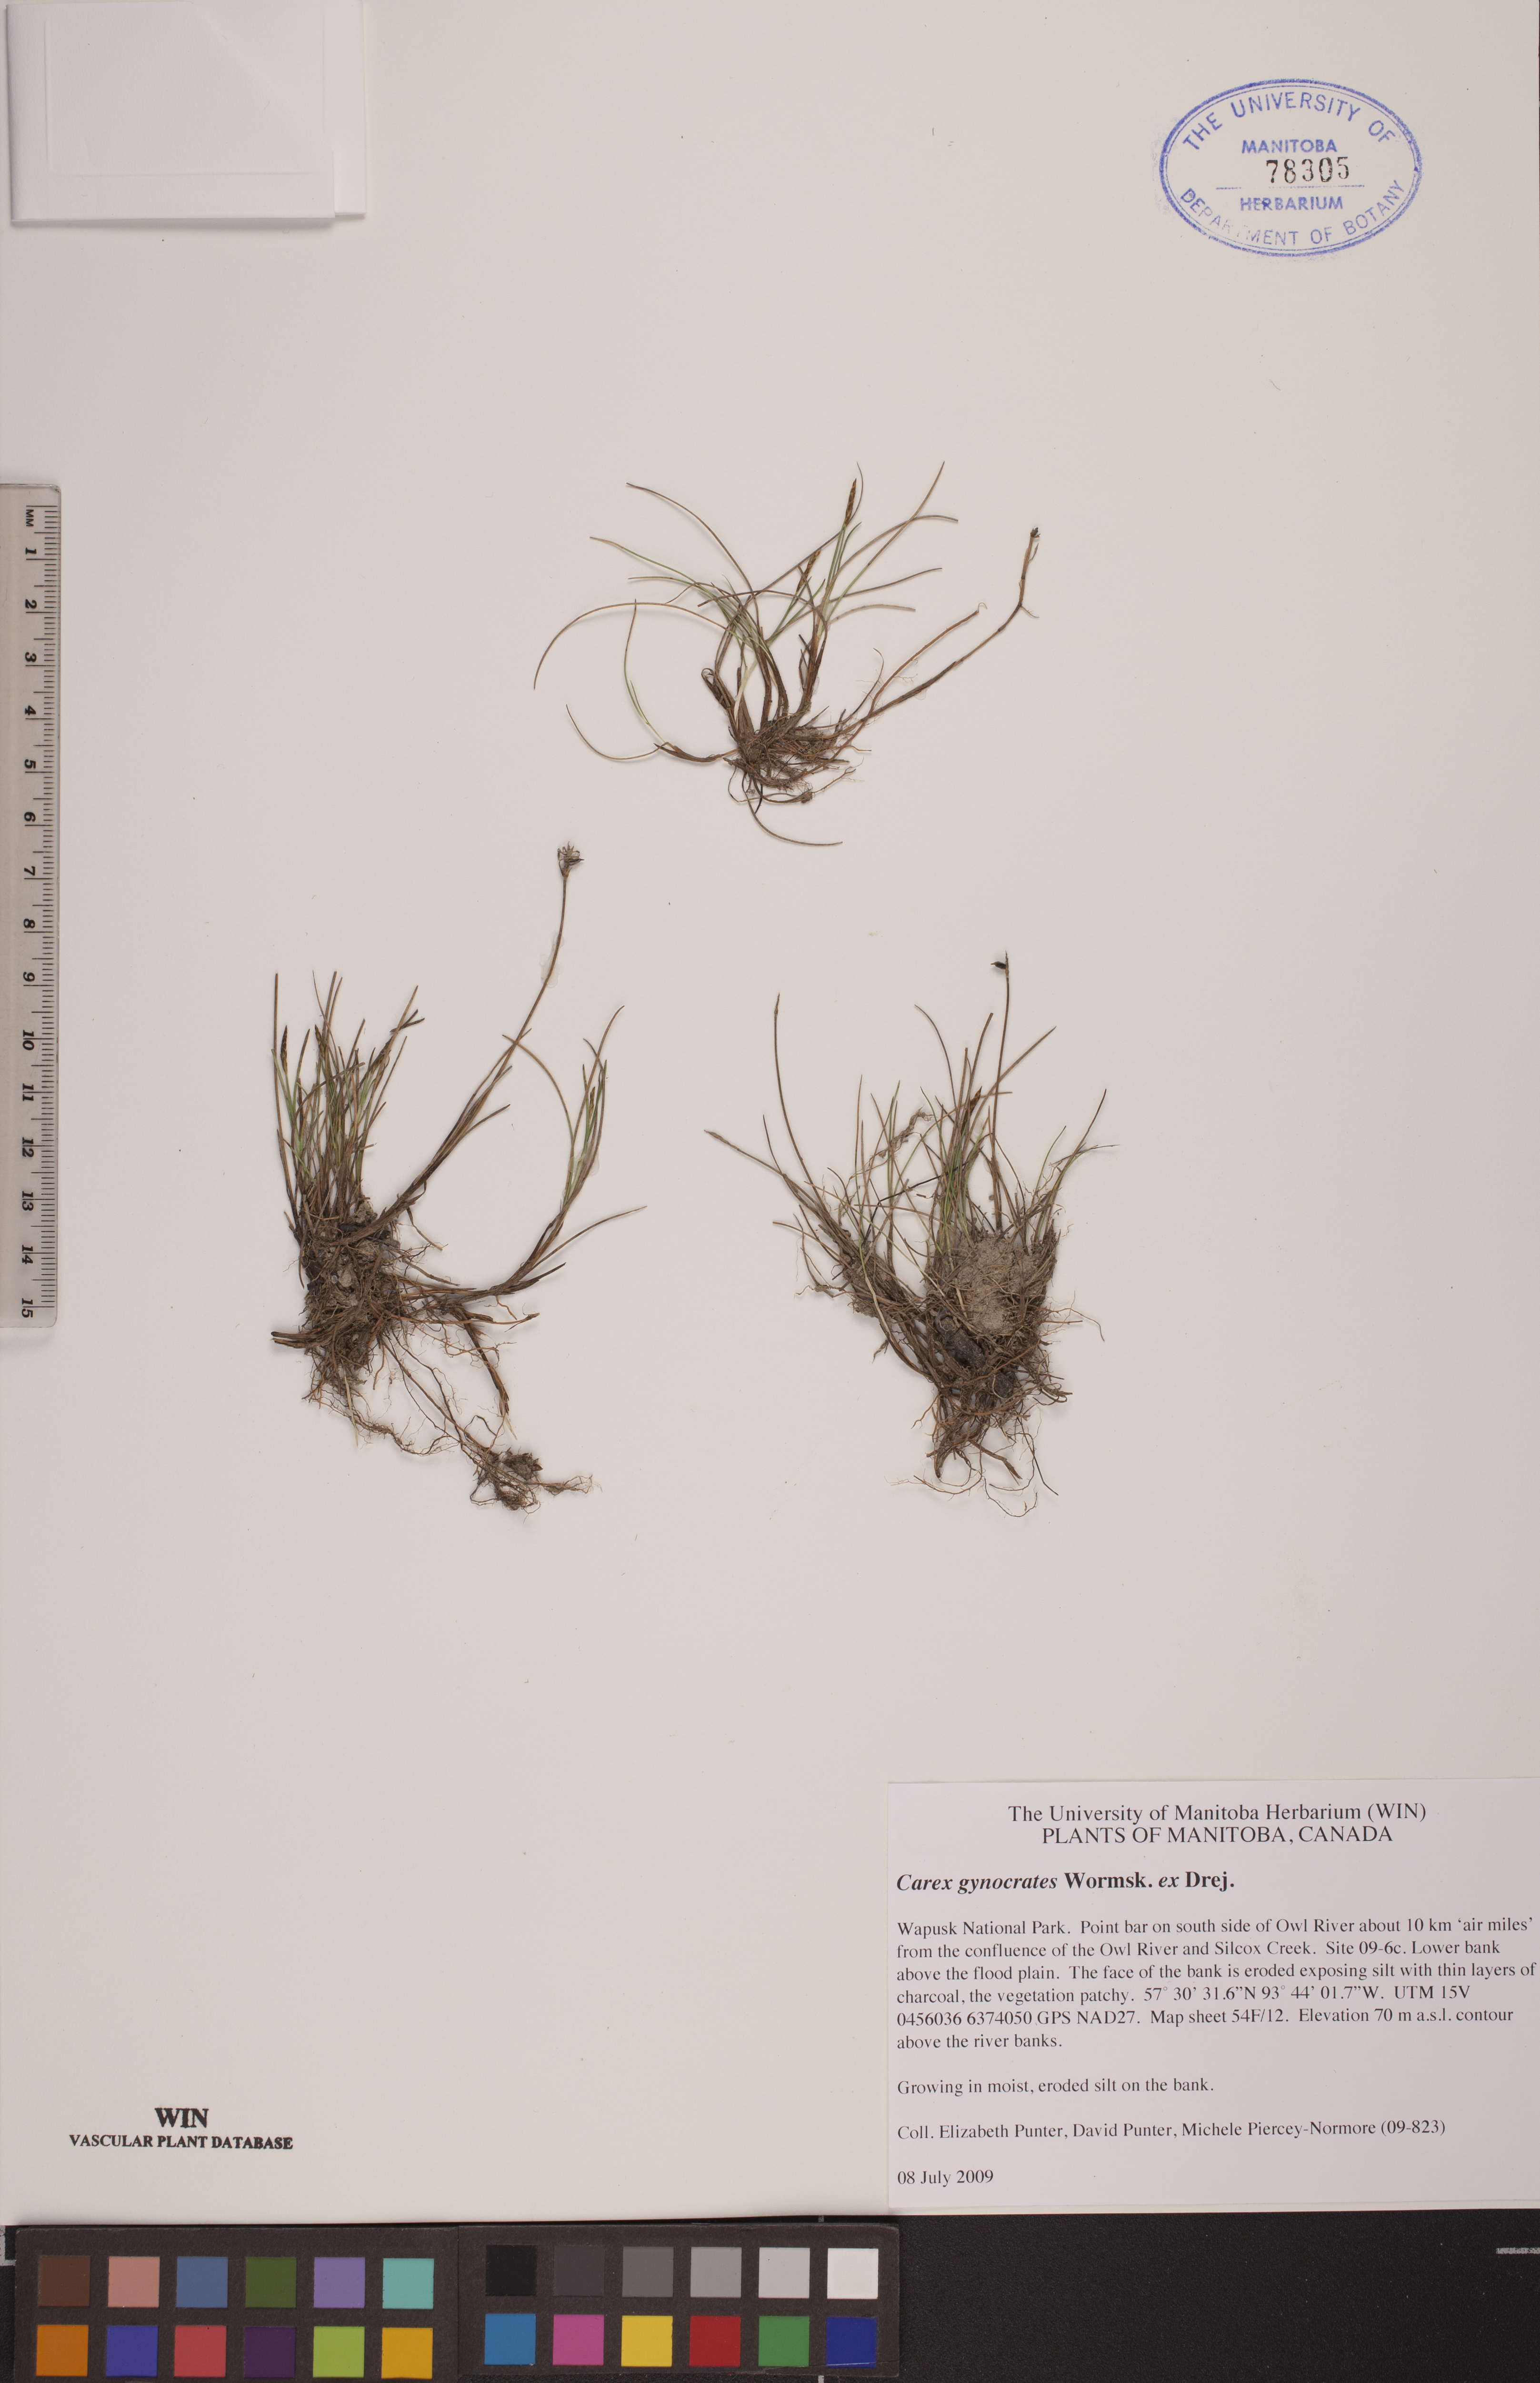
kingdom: Plantae
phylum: Tracheophyta
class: Liliopsida
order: Poales
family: Cyperaceae
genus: Carex
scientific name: Carex nardina
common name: Nard sedge
